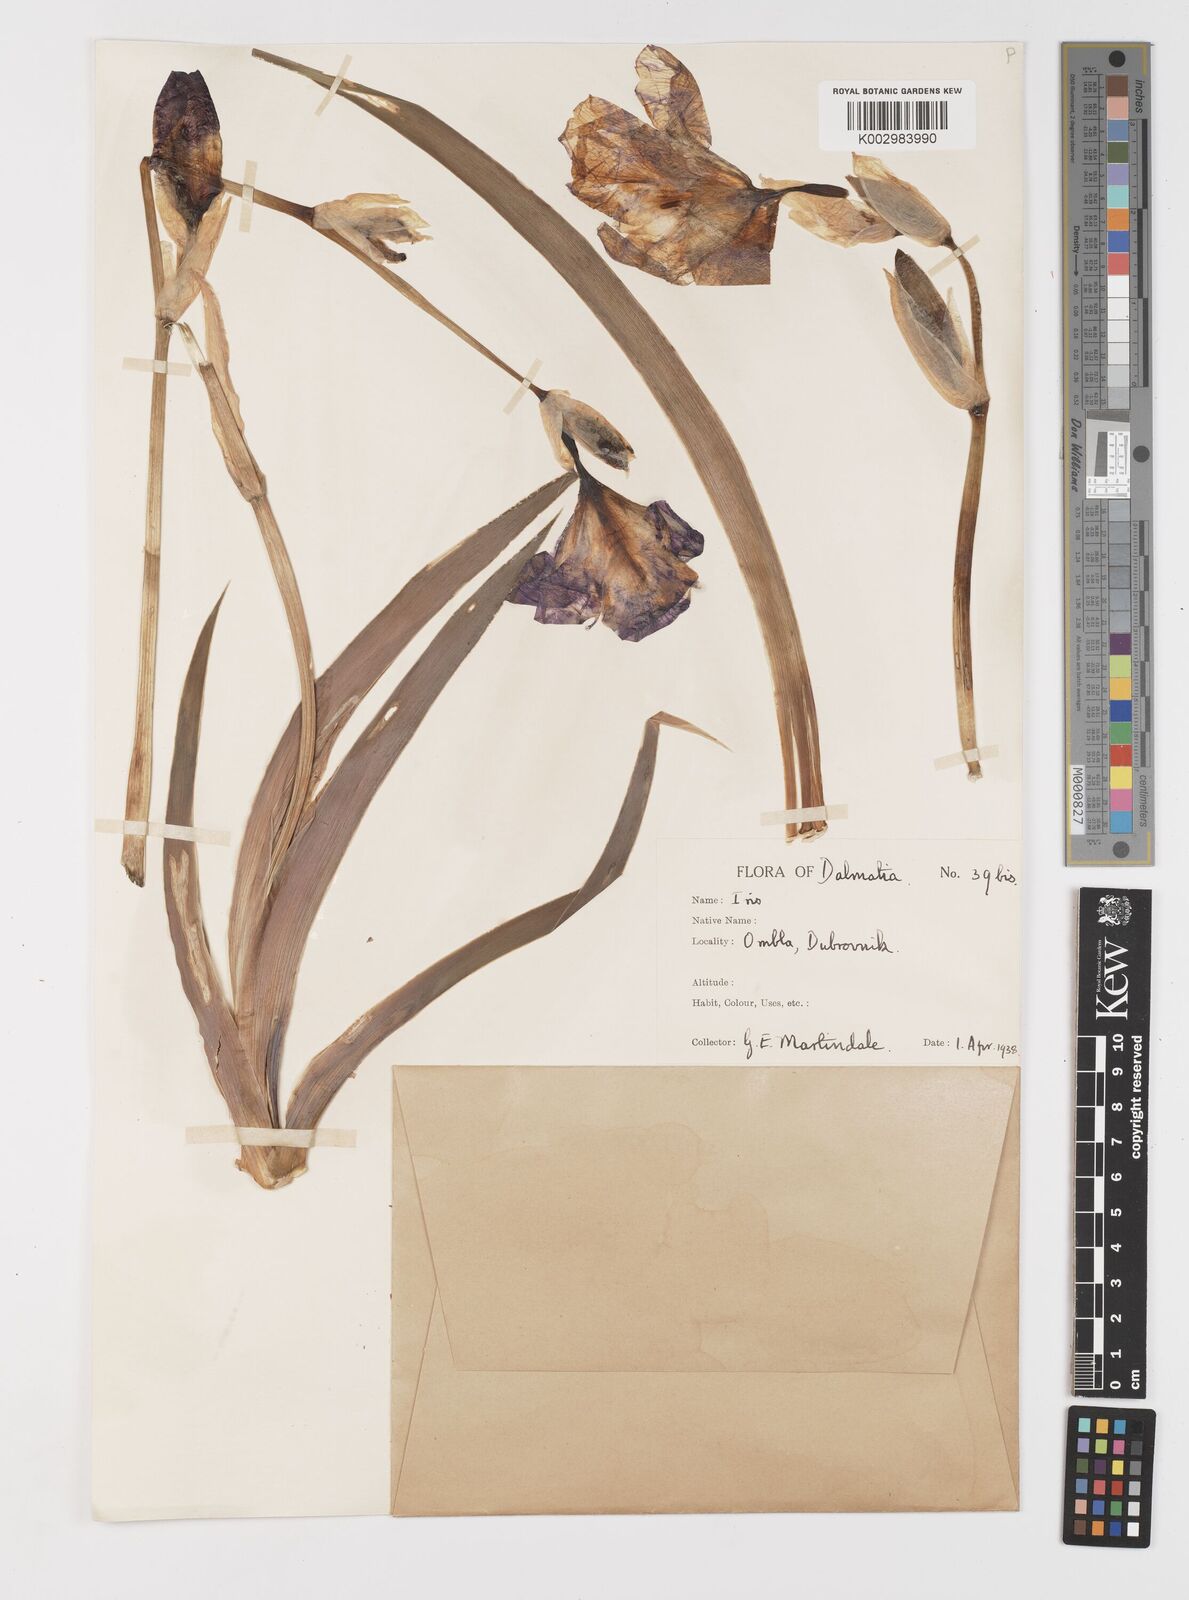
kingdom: Plantae
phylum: Tracheophyta
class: Liliopsida
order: Asparagales
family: Iridaceae
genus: Iris
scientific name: Iris halophila
